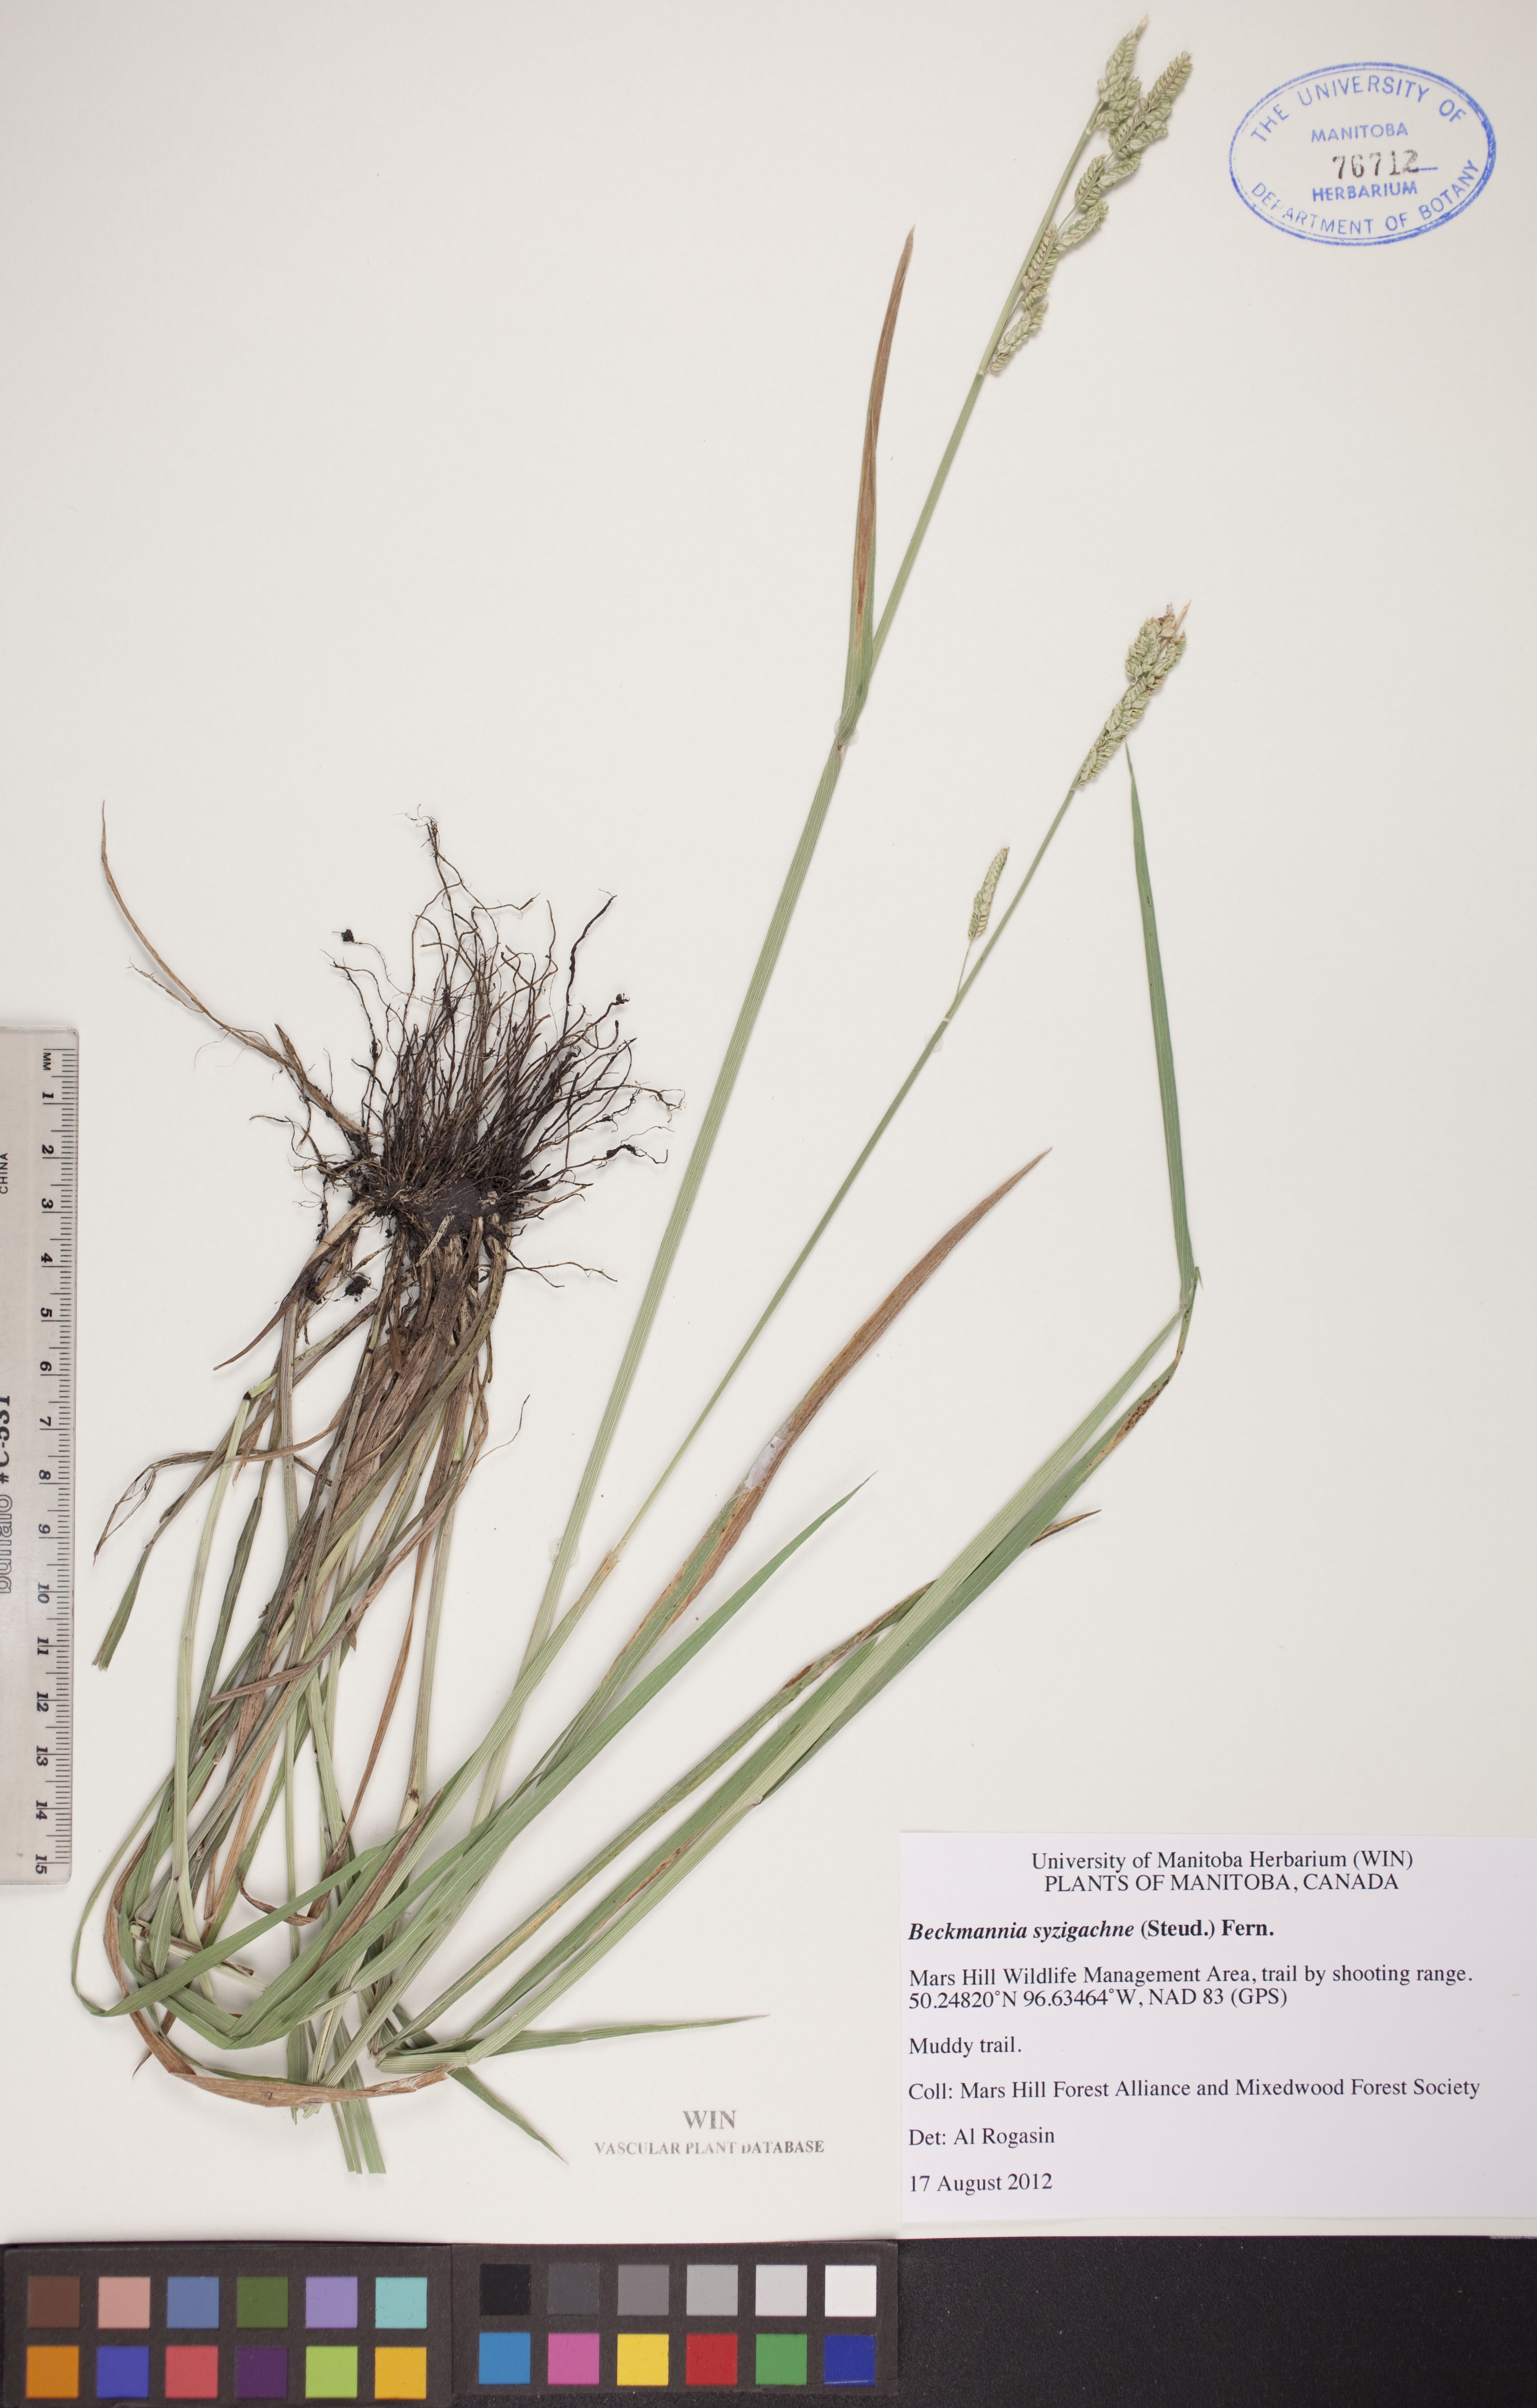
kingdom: Plantae
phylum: Tracheophyta
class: Liliopsida
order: Poales
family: Poaceae
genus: Beckmannia
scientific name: Beckmannia syzigachne
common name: American slough-grass
